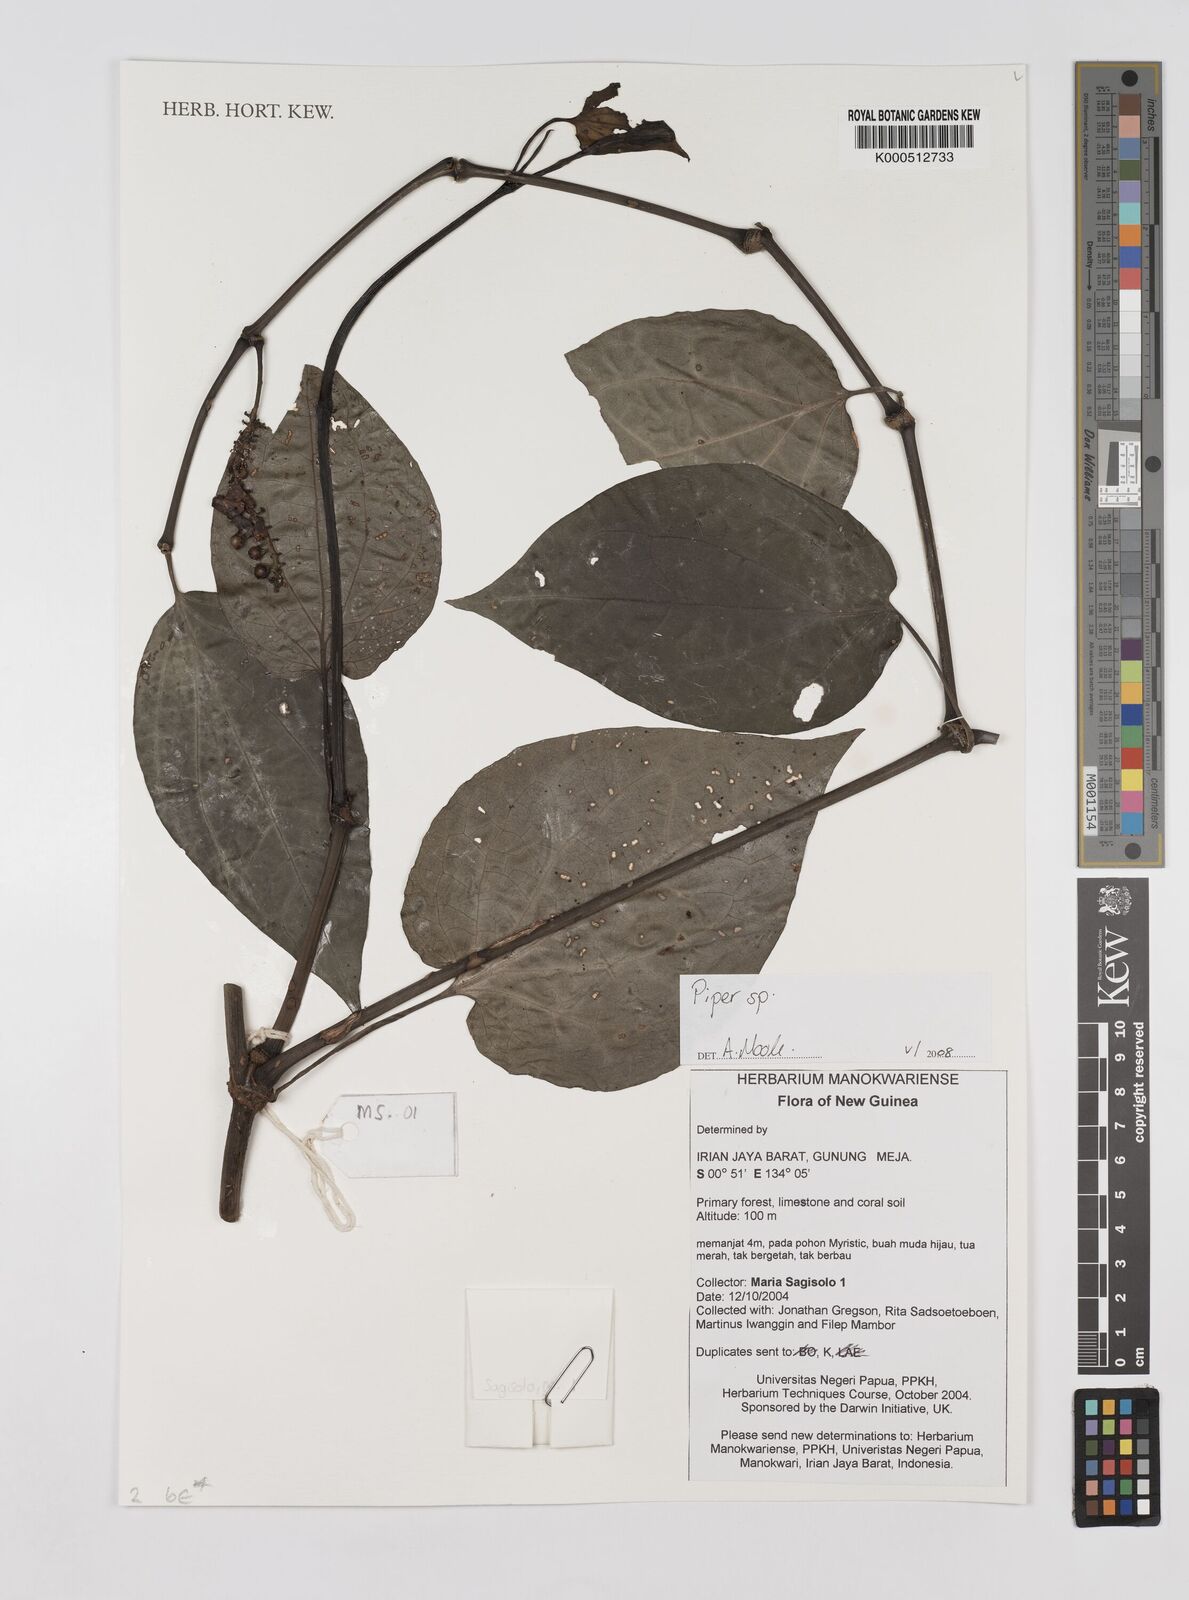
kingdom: Plantae
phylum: Tracheophyta
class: Magnoliopsida
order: Piperales
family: Piperaceae
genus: Piper
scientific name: Piper
